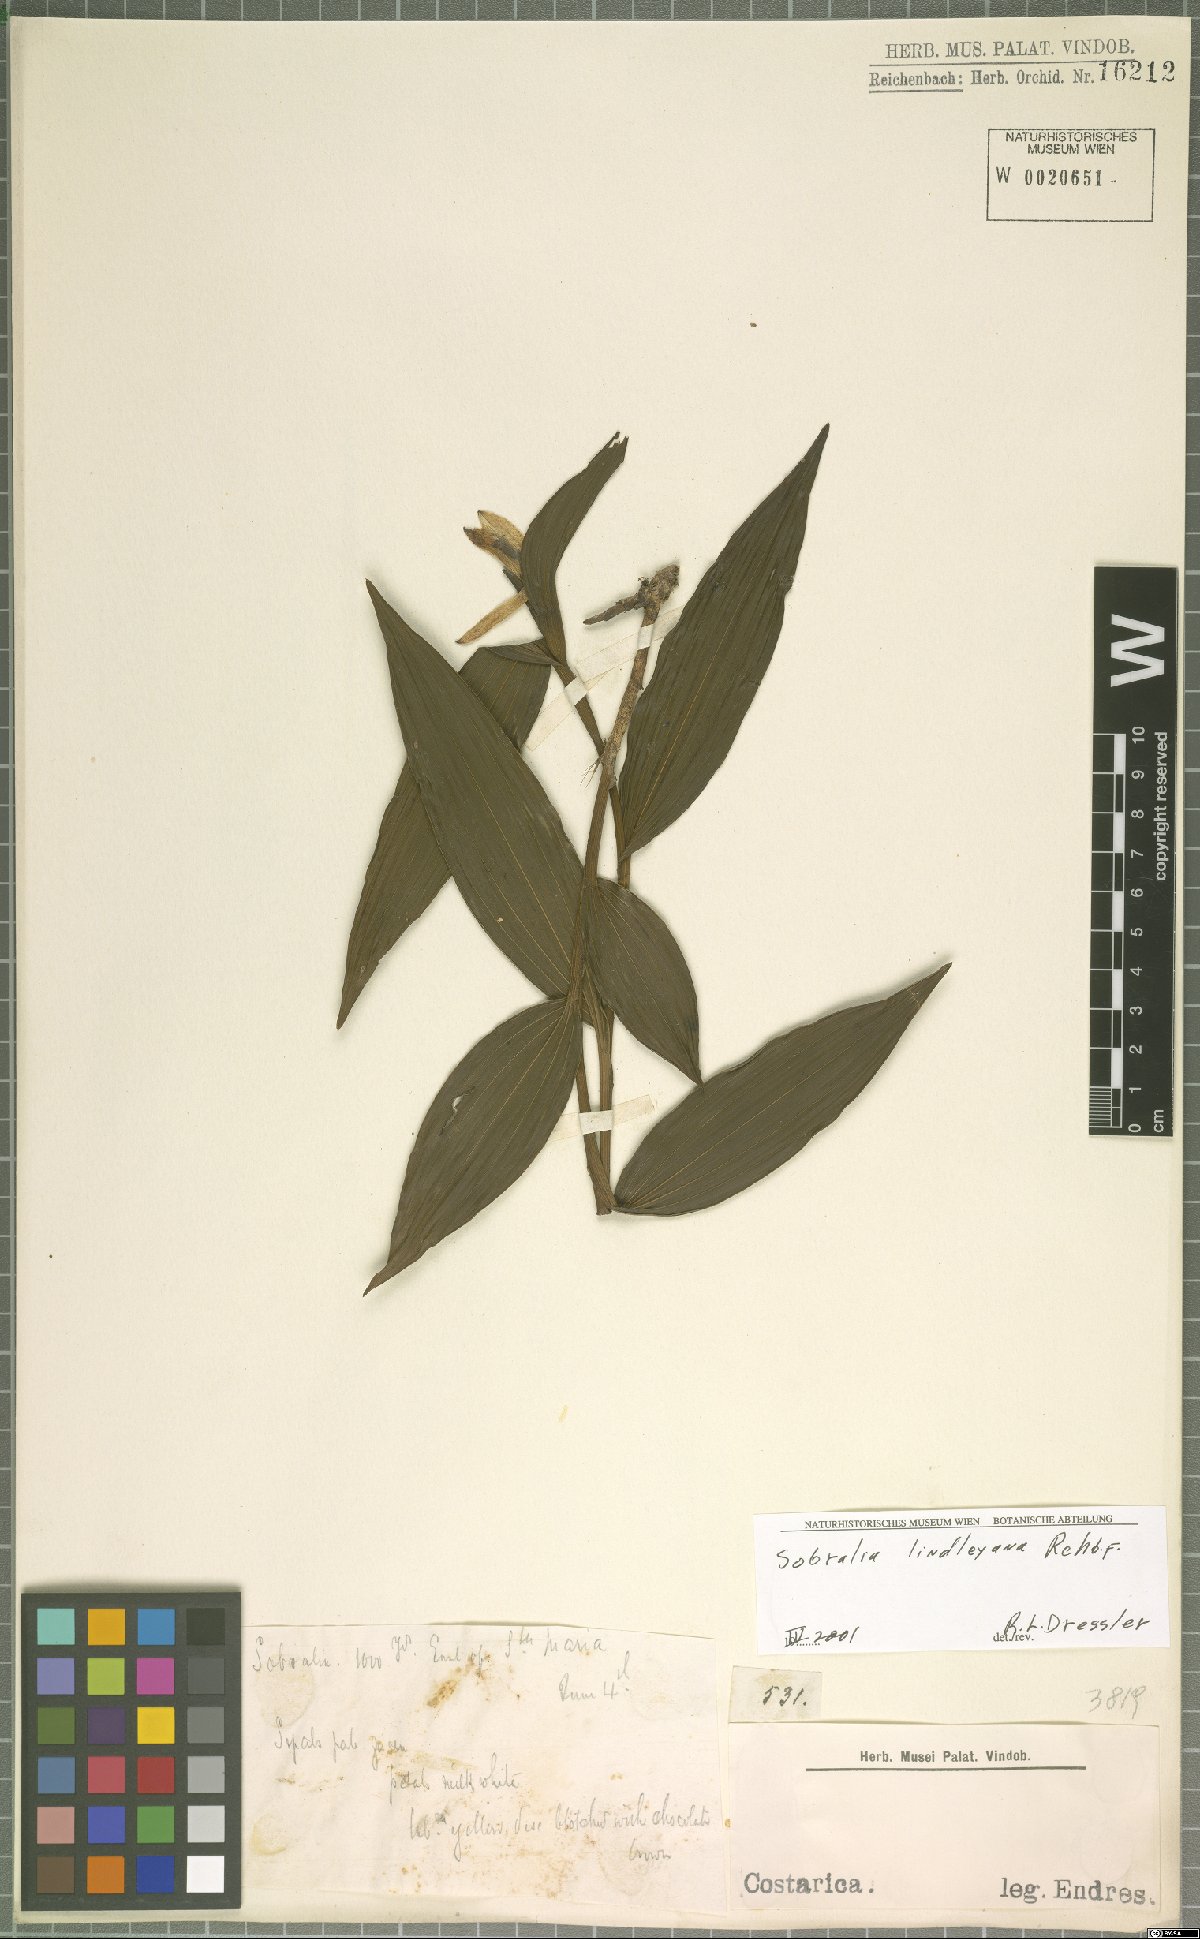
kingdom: Plantae
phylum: Tracheophyta
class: Liliopsida
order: Asparagales
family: Orchidaceae
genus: Sobralia
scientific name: Sobralia lindleyana
